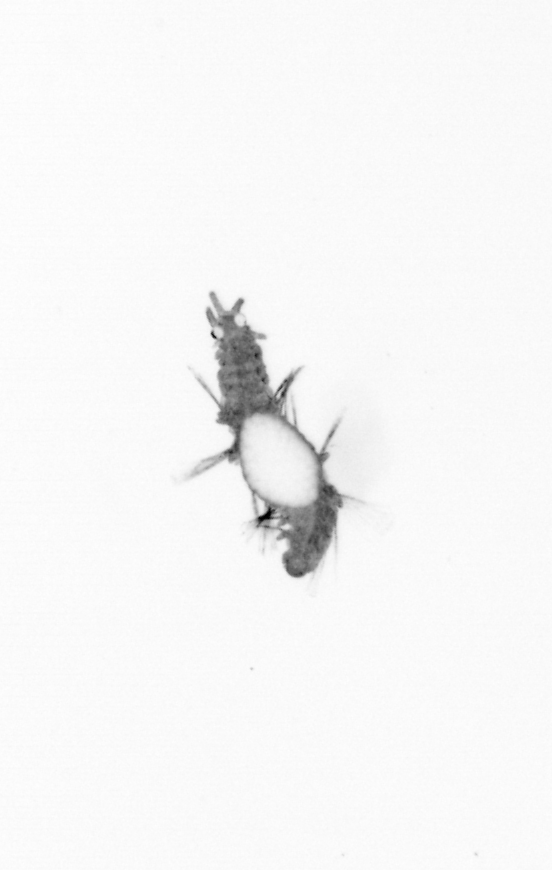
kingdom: Animalia
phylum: Annelida
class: Polychaeta
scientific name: Polychaeta
